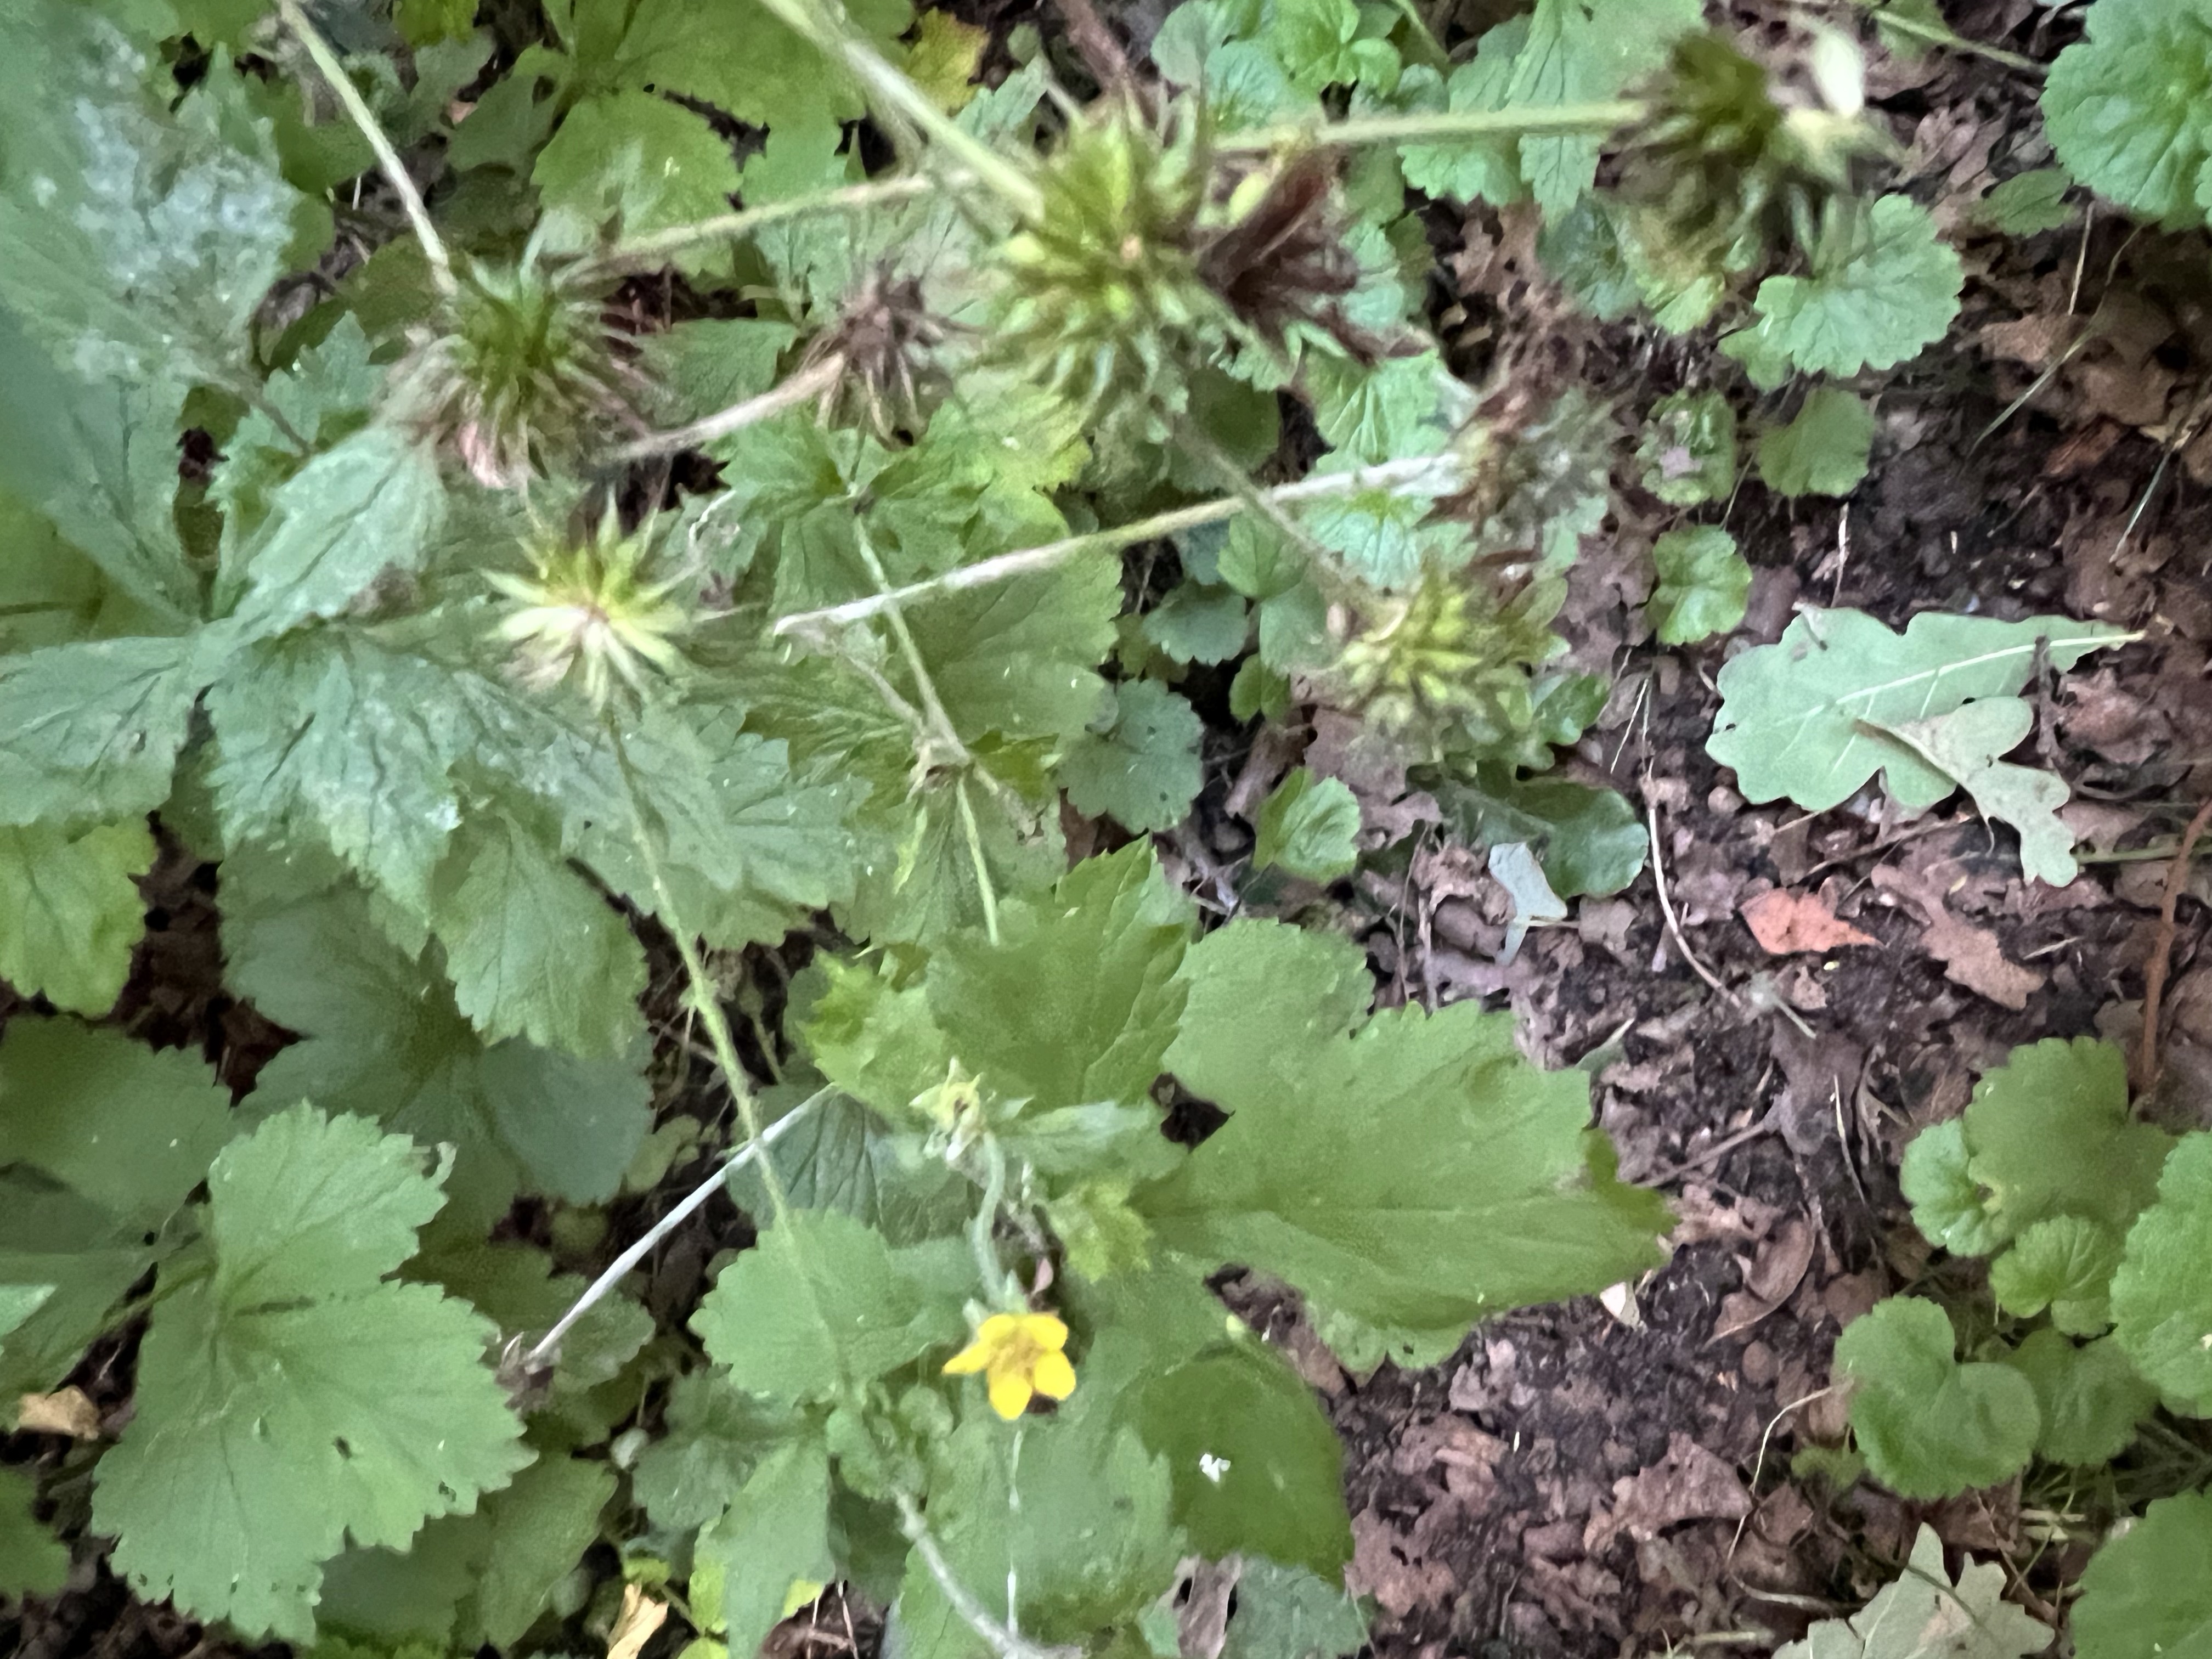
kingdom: Plantae
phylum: Tracheophyta
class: Magnoliopsida
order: Rosales
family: Rosaceae
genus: Geum
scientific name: Geum urbanum
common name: Feber-nellikerod
